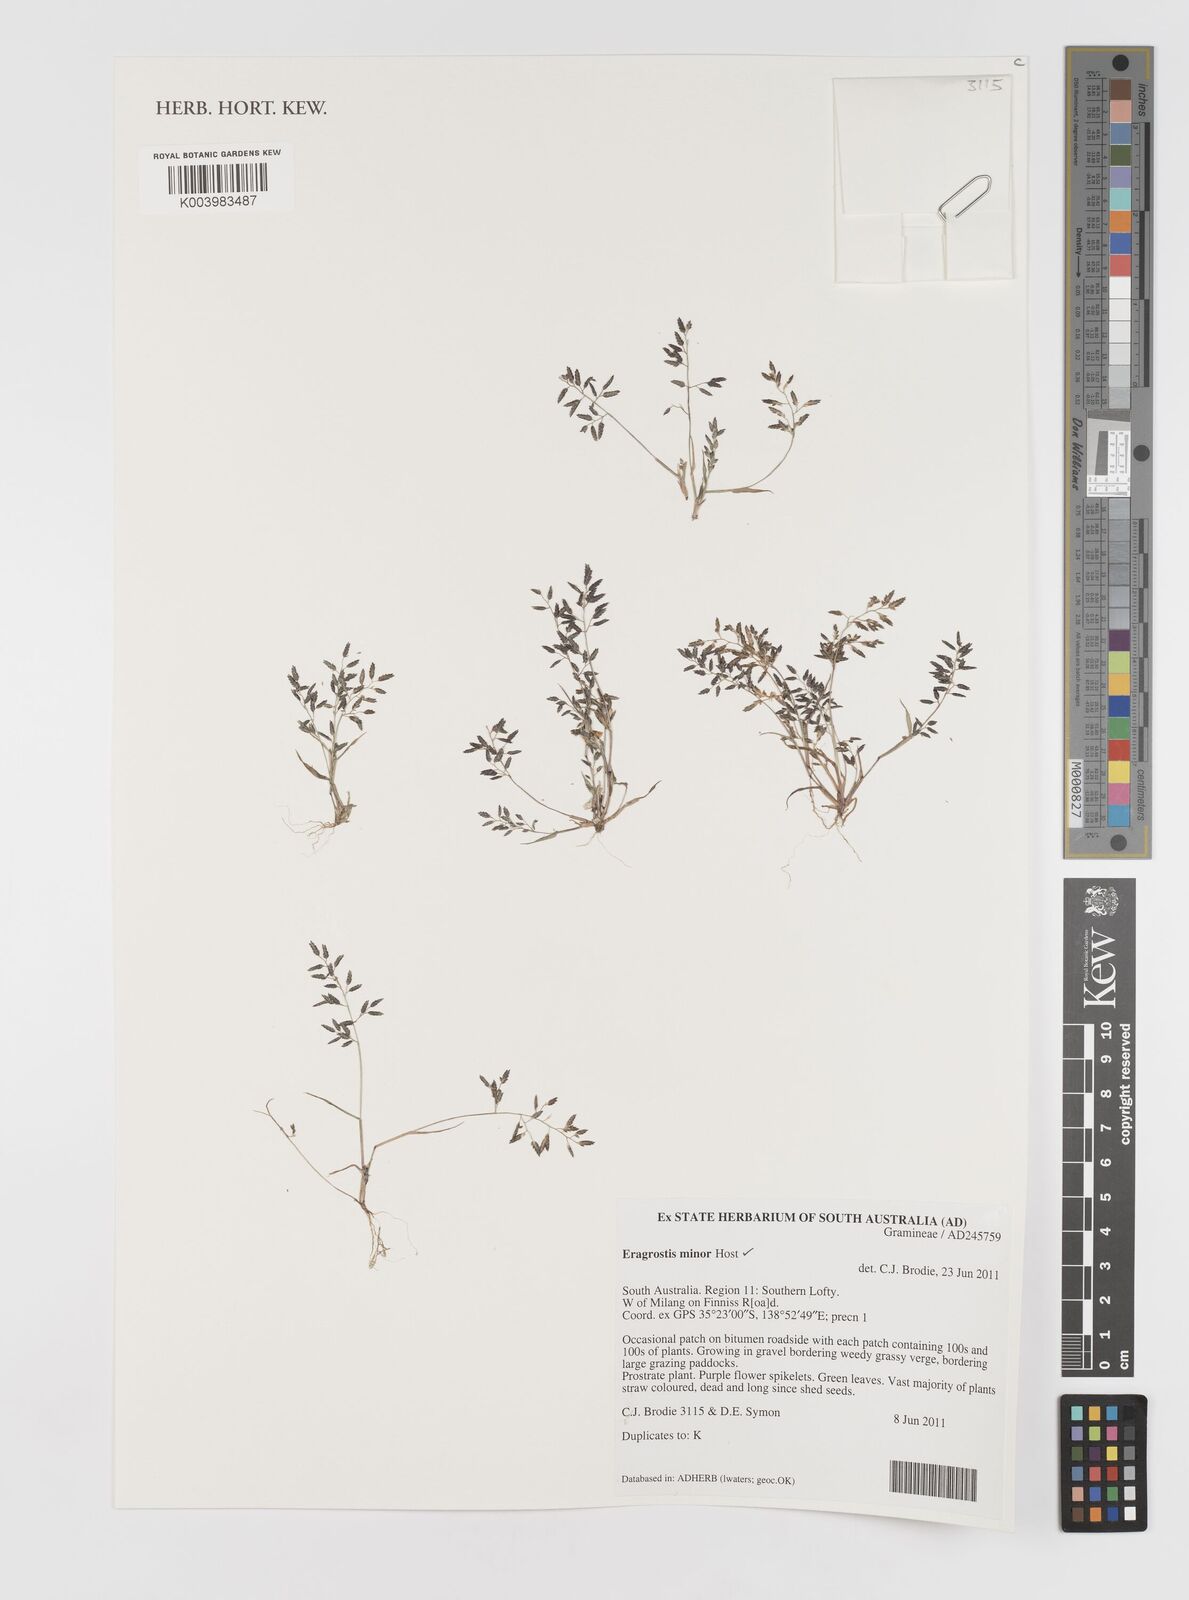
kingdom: Plantae
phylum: Tracheophyta
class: Liliopsida
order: Poales
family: Poaceae
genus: Eragrostis
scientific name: Eragrostis minor
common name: Small love-grass
